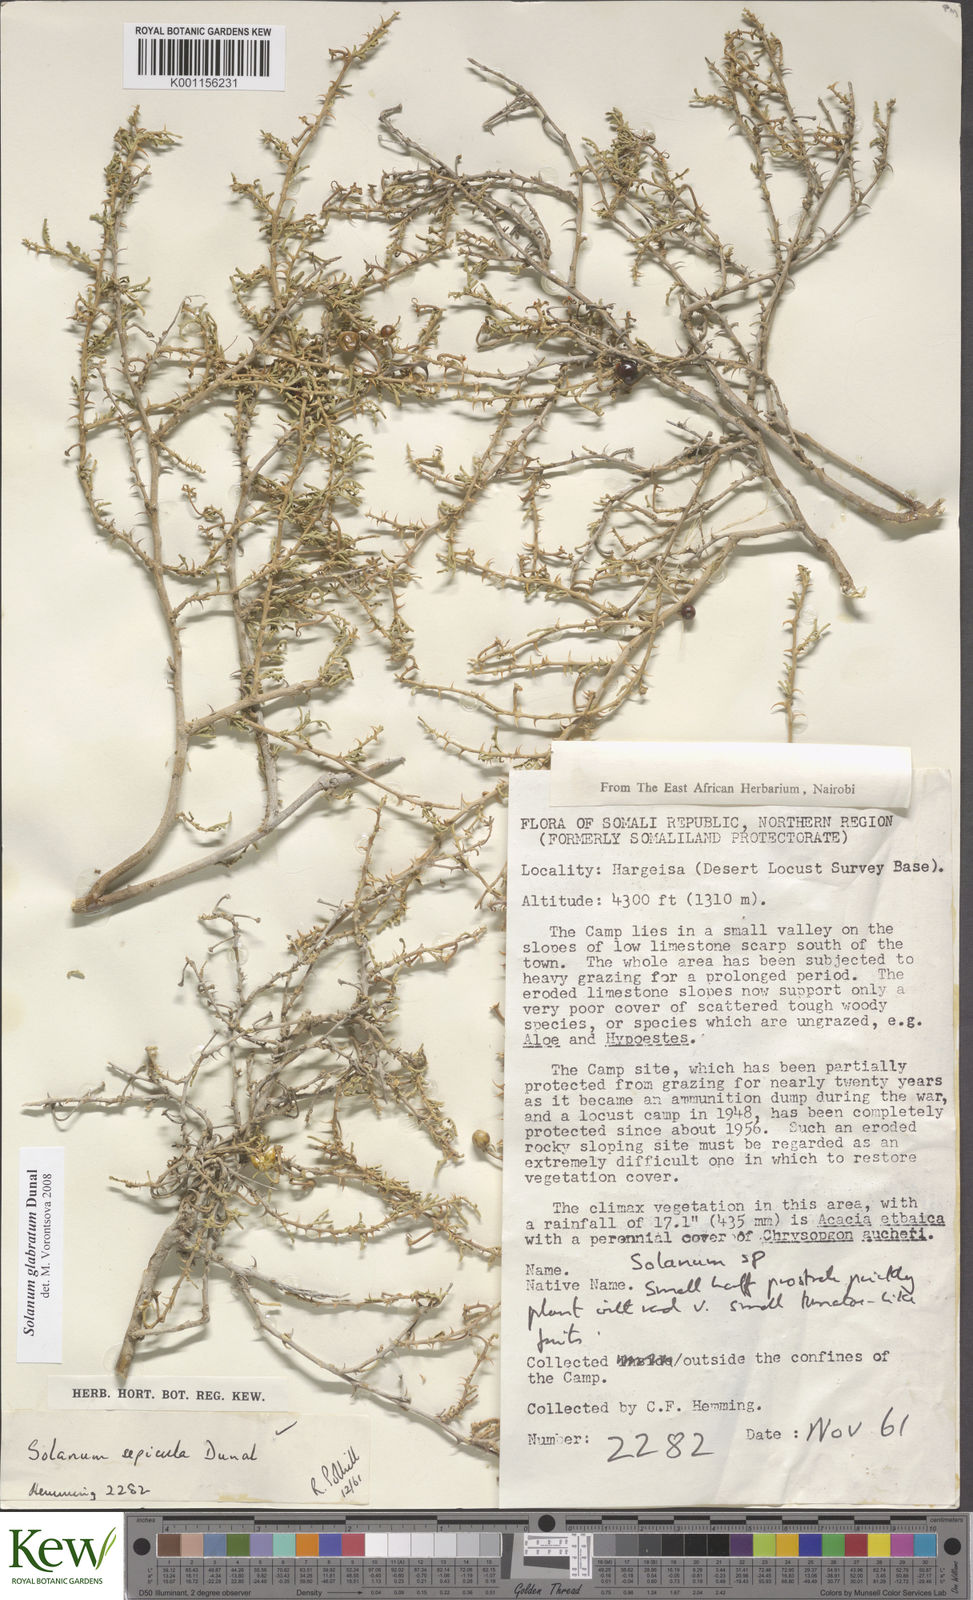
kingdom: Plantae
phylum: Tracheophyta
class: Magnoliopsida
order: Solanales
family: Solanaceae
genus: Solanum
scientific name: Solanum glabratum
